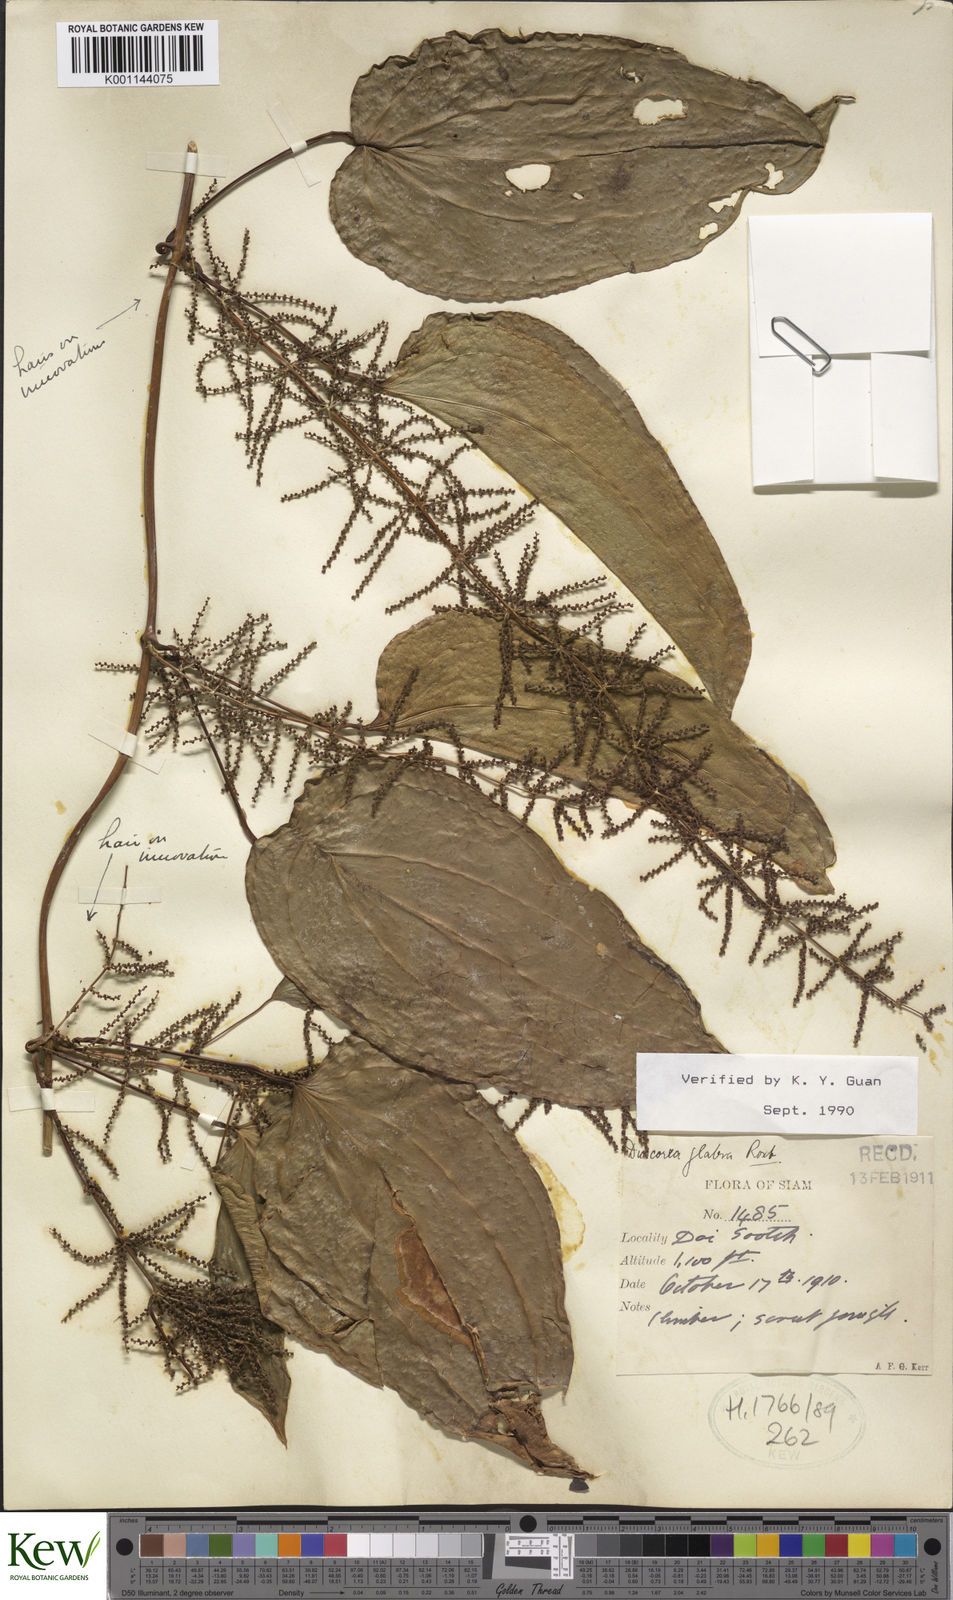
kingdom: Plantae
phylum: Tracheophyta
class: Liliopsida
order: Dioscoreales
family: Dioscoreaceae
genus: Dioscorea
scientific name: Dioscorea glabra
